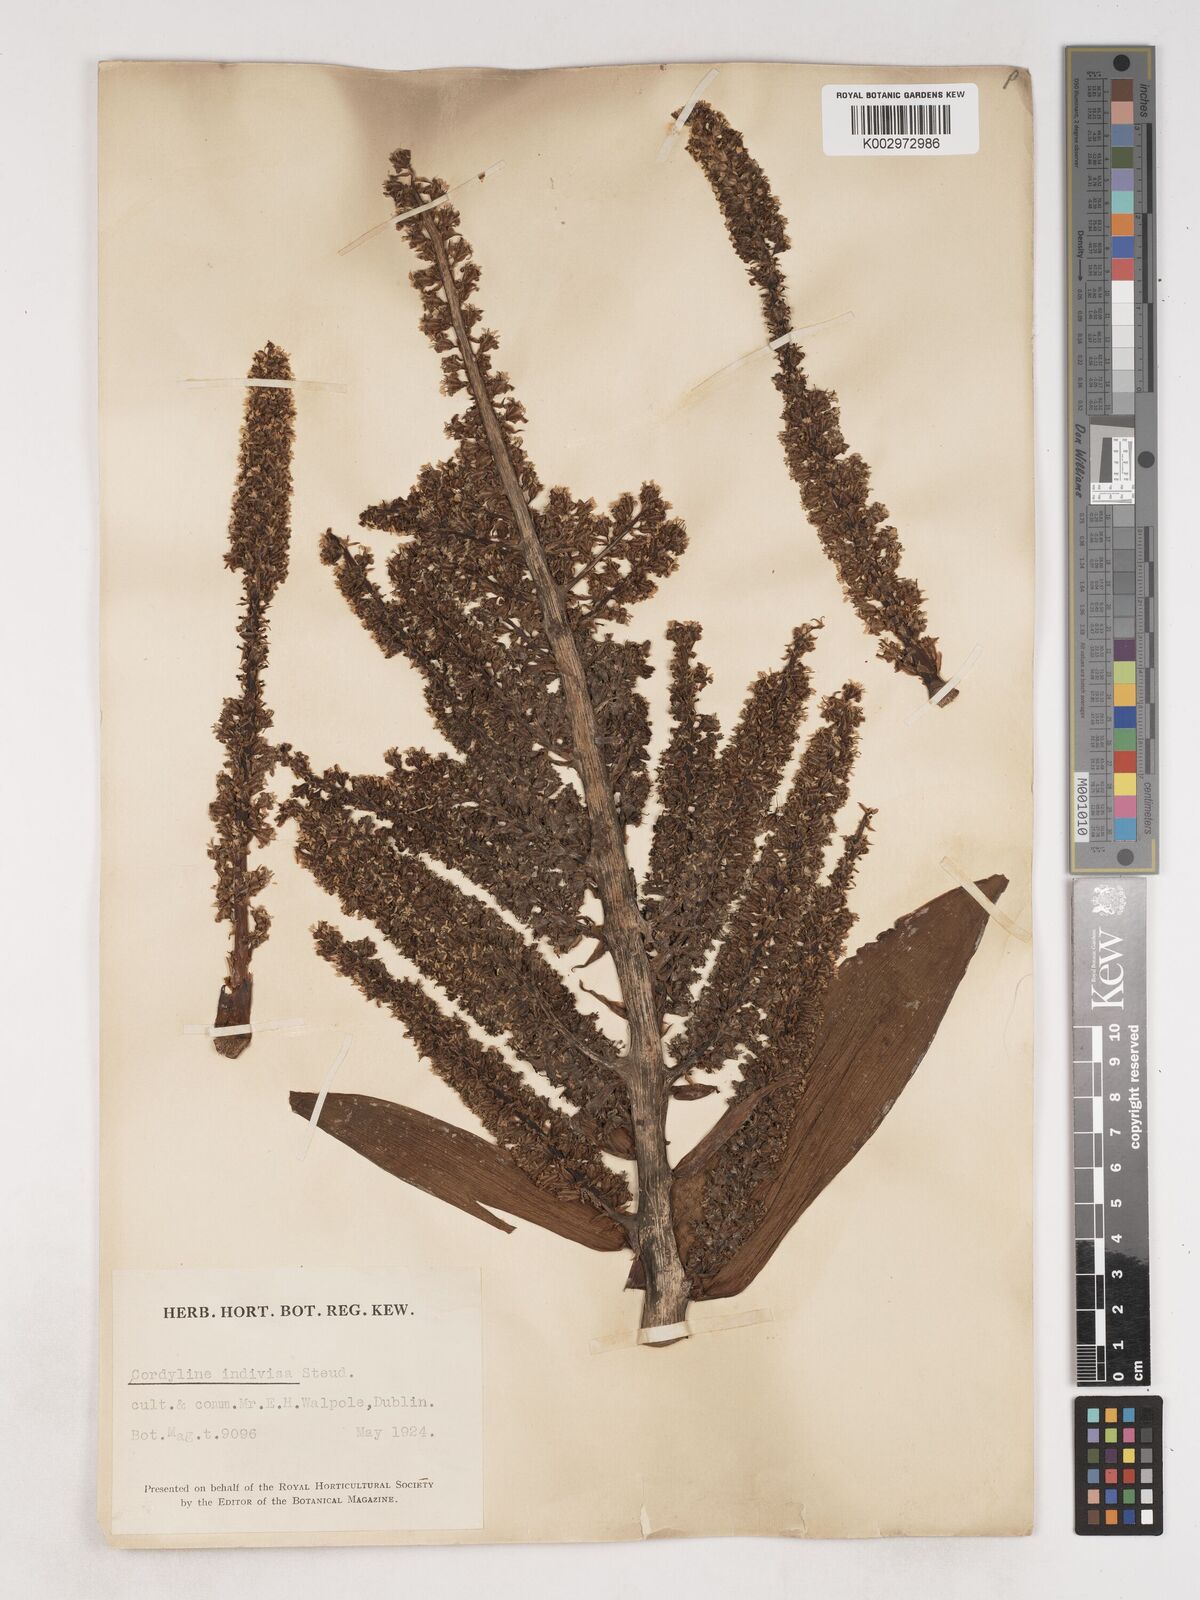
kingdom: Plantae
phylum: Tracheophyta
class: Liliopsida
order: Asparagales
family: Asparagaceae
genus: Cordyline
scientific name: Cordyline
